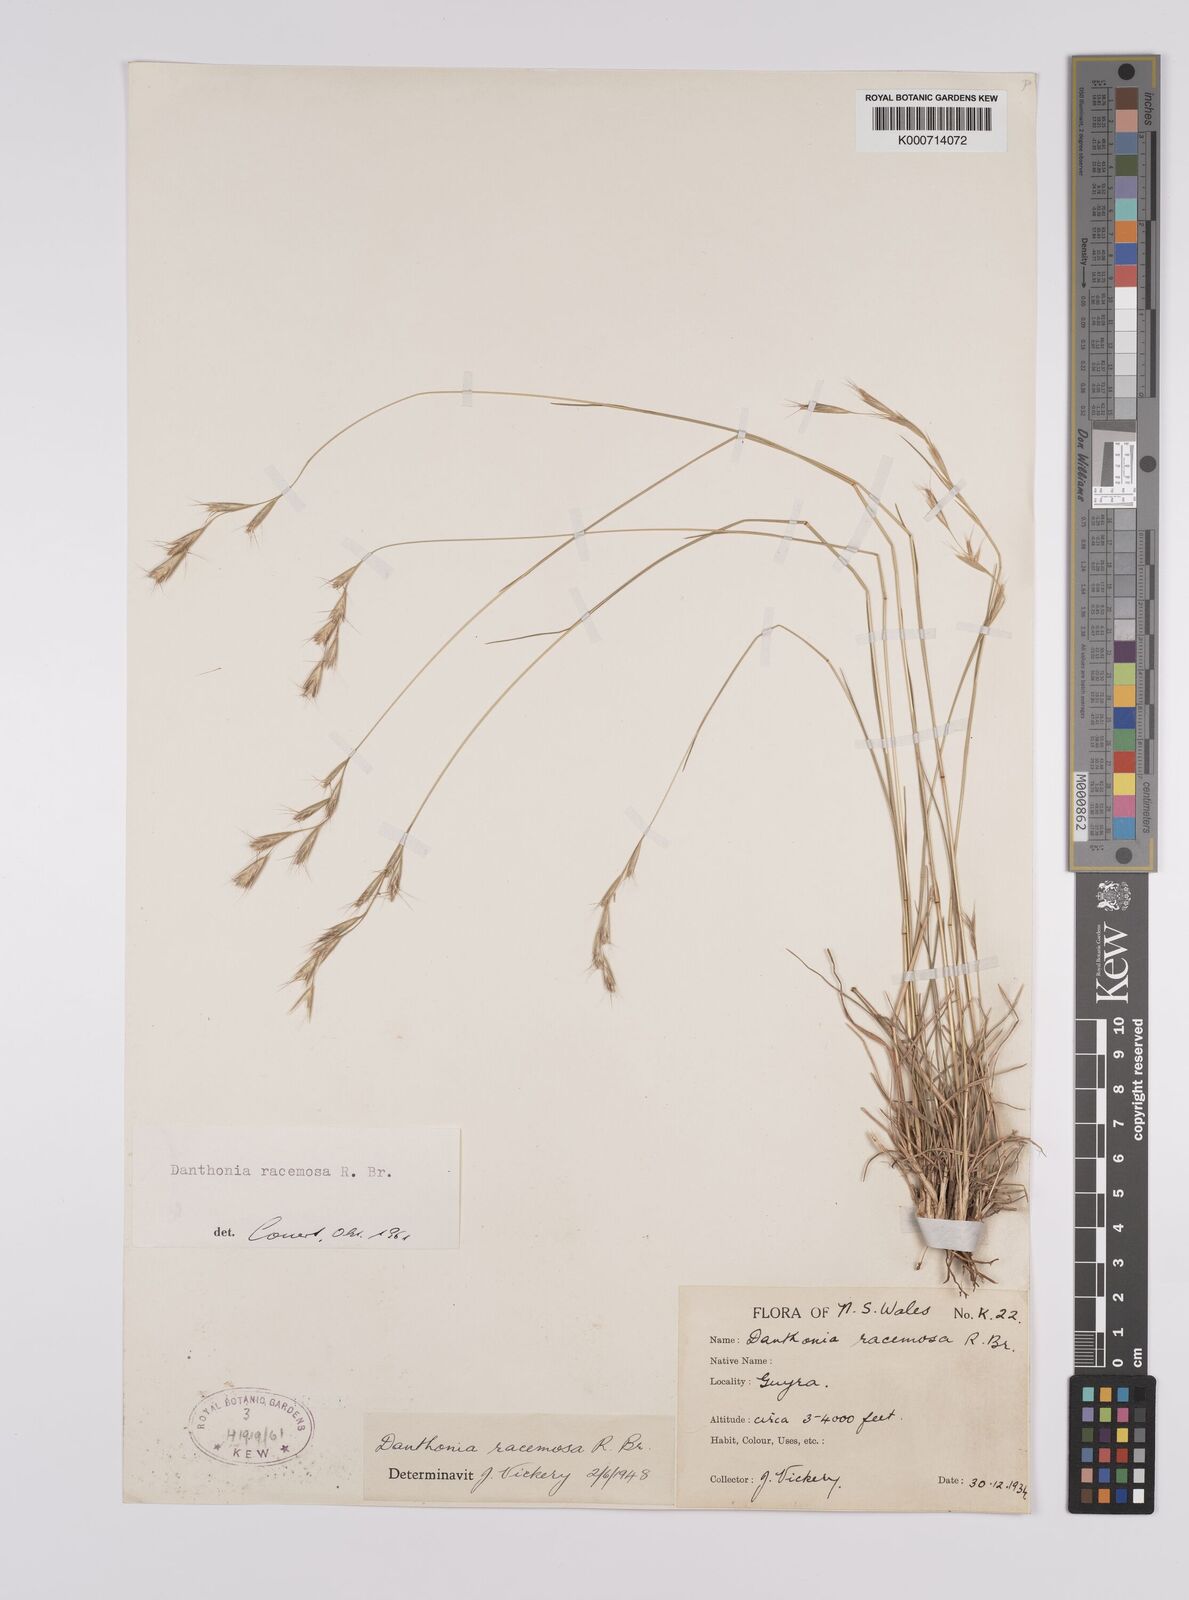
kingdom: Plantae
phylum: Tracheophyta
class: Liliopsida
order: Poales
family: Poaceae
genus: Rytidosperma
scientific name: Rytidosperma racemosum
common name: Wallaby-grass
